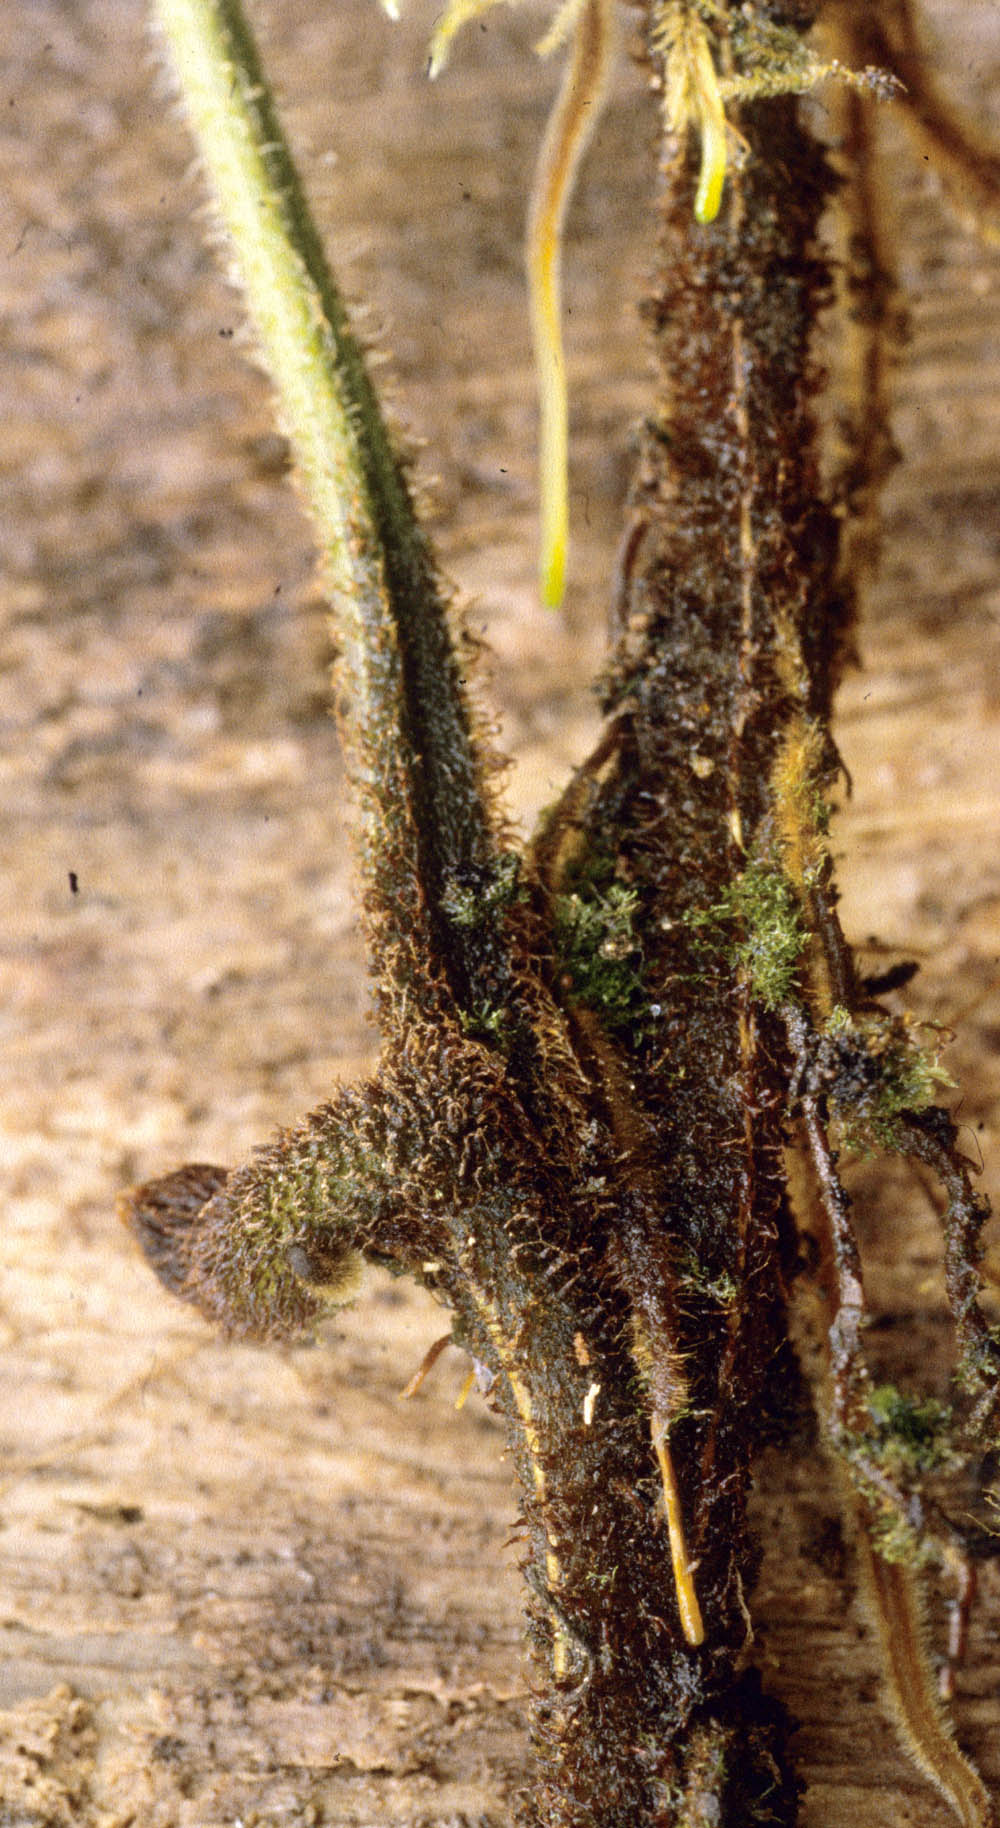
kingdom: Plantae
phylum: Tracheophyta
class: Polypodiopsida
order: Polypodiales
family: Dennstaedtiaceae
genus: Dennstaedtia
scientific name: Dennstaedtia obtusifolia
